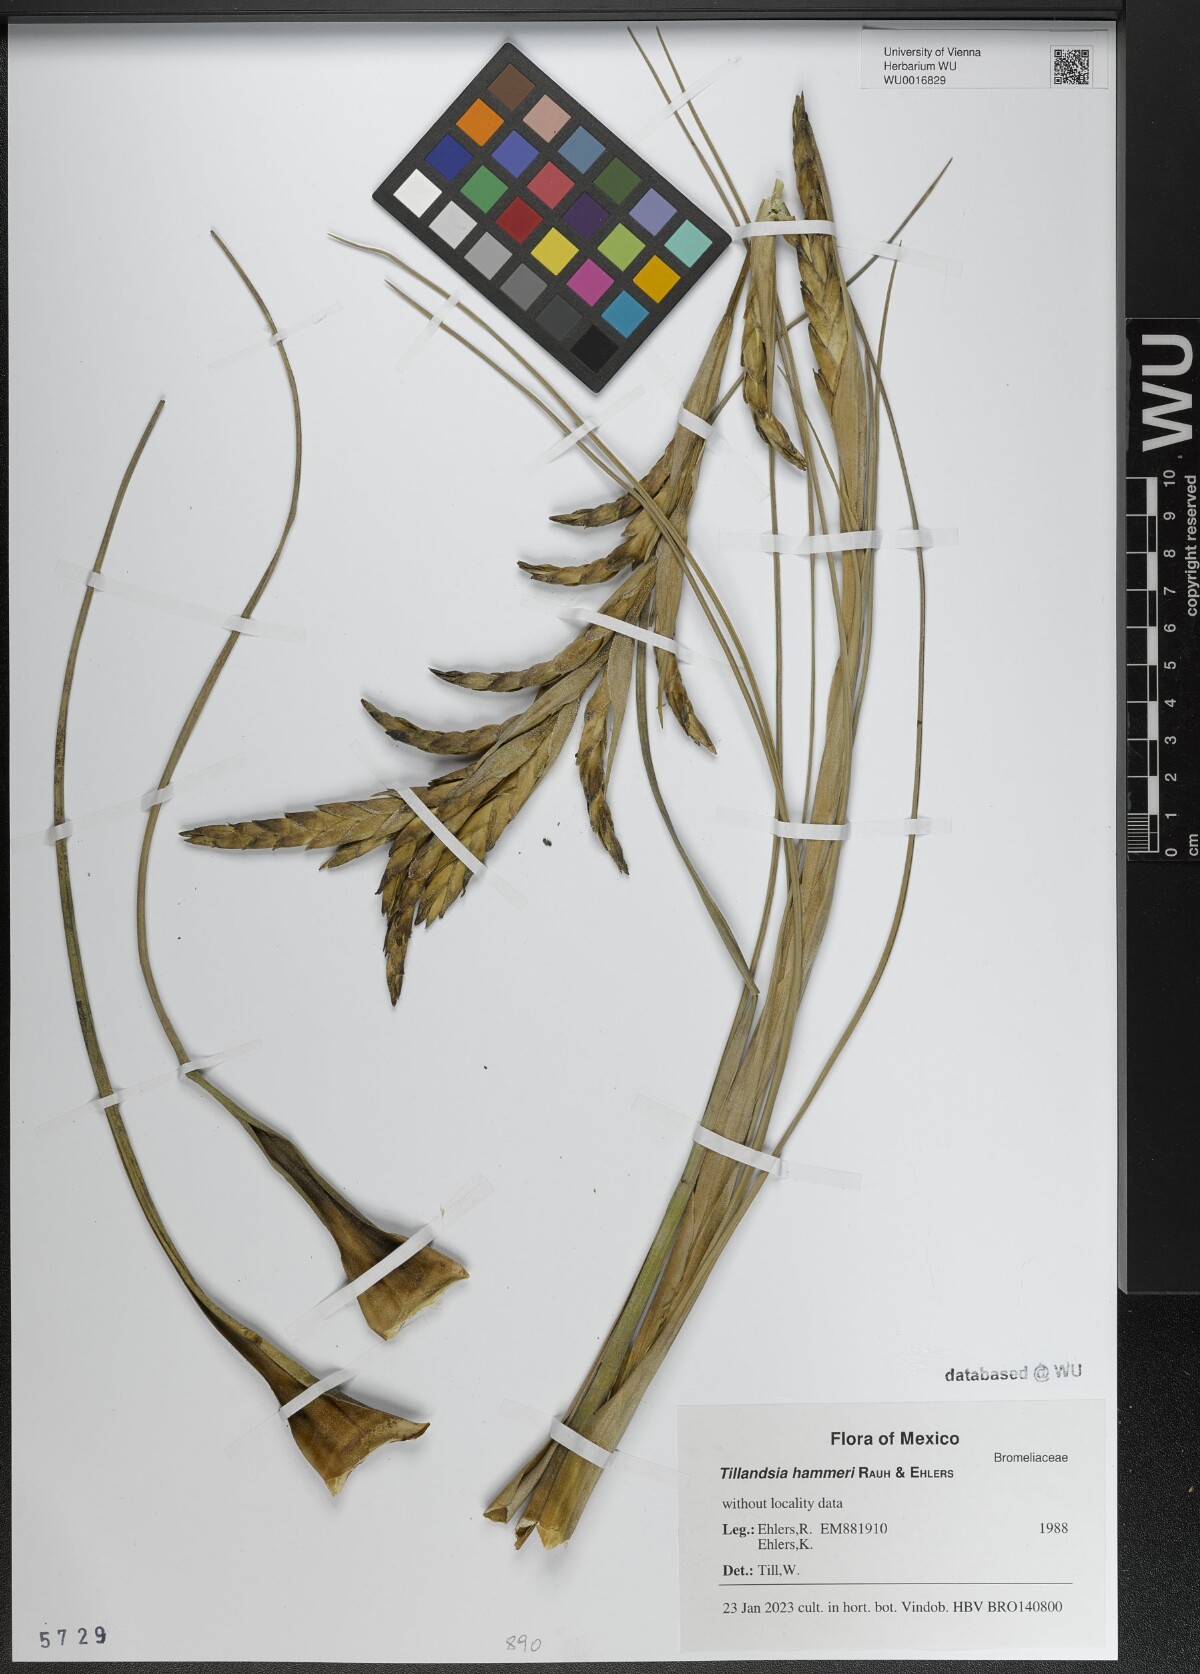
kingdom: Plantae
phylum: Tracheophyta
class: Liliopsida
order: Poales
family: Bromeliaceae
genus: Tillandsia
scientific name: Tillandsia hammeri
